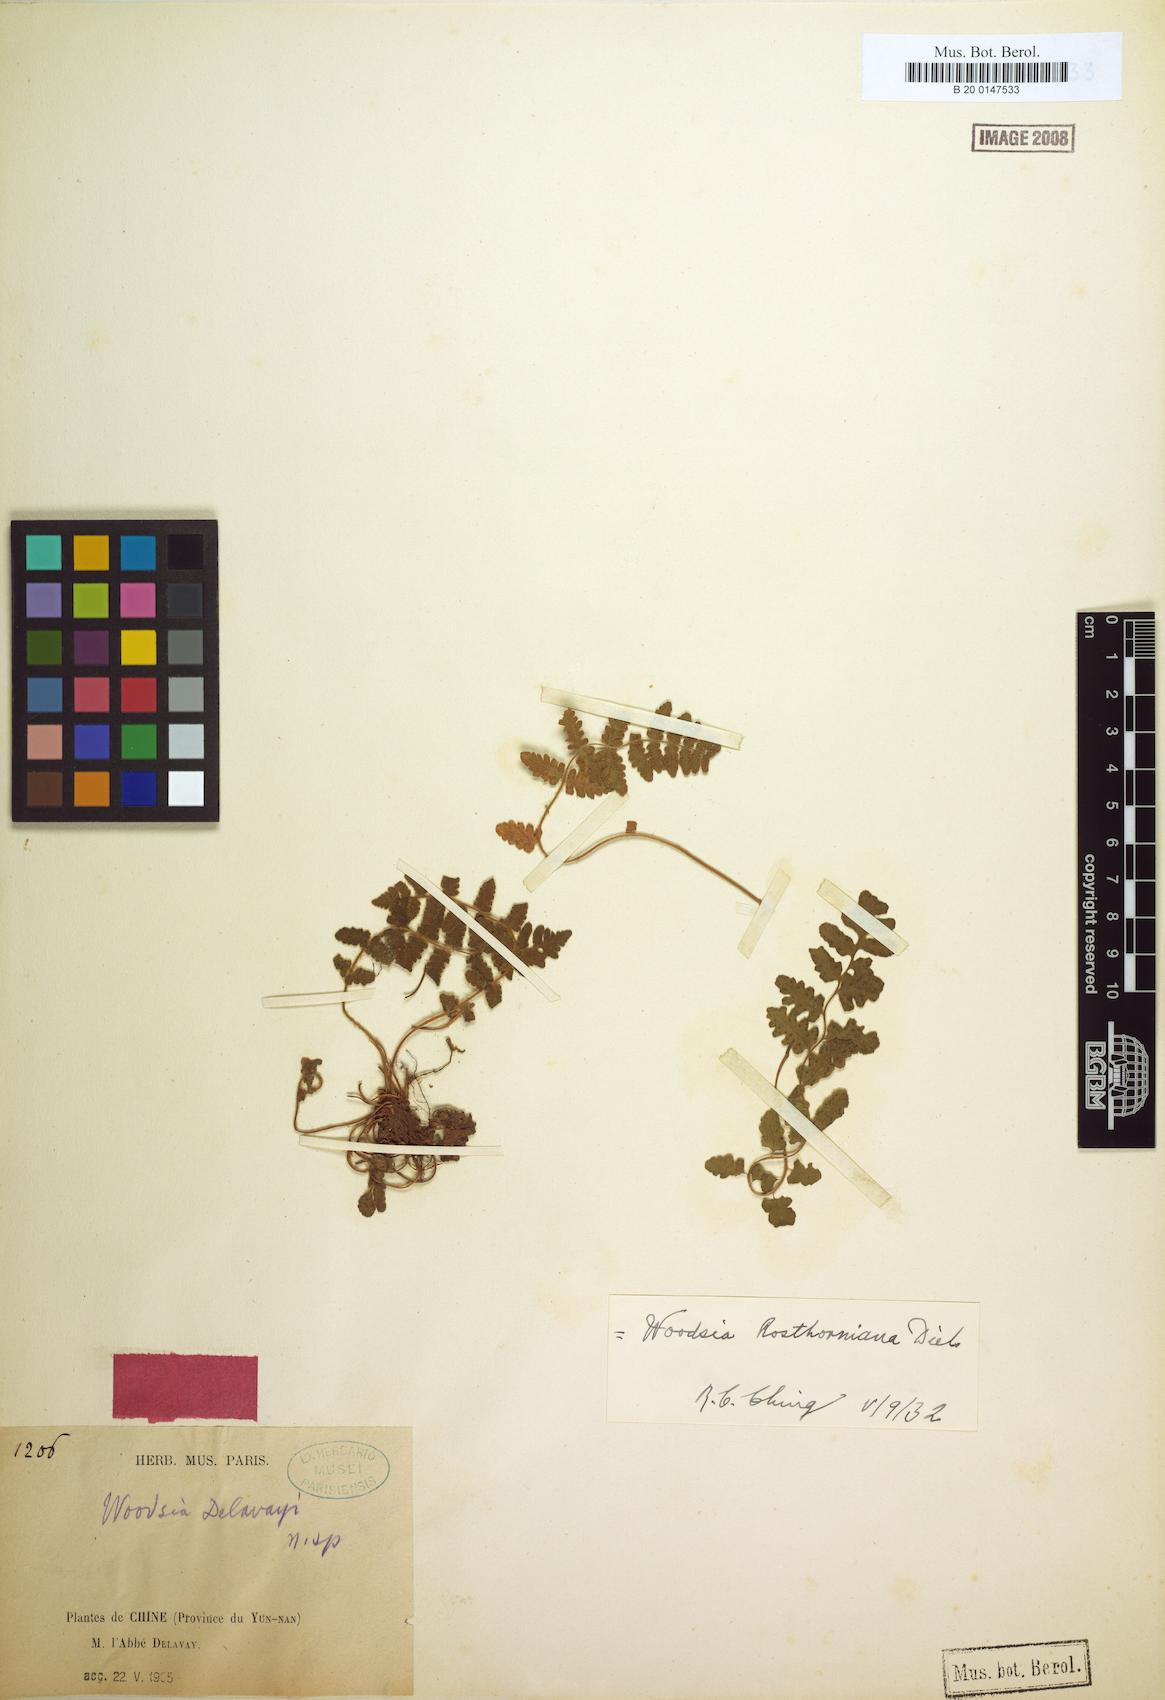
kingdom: Plantae
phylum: Tracheophyta
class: Polypodiopsida
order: Polypodiales
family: Woodsiaceae
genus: Woodsia
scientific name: Woodsia rosthorniana
